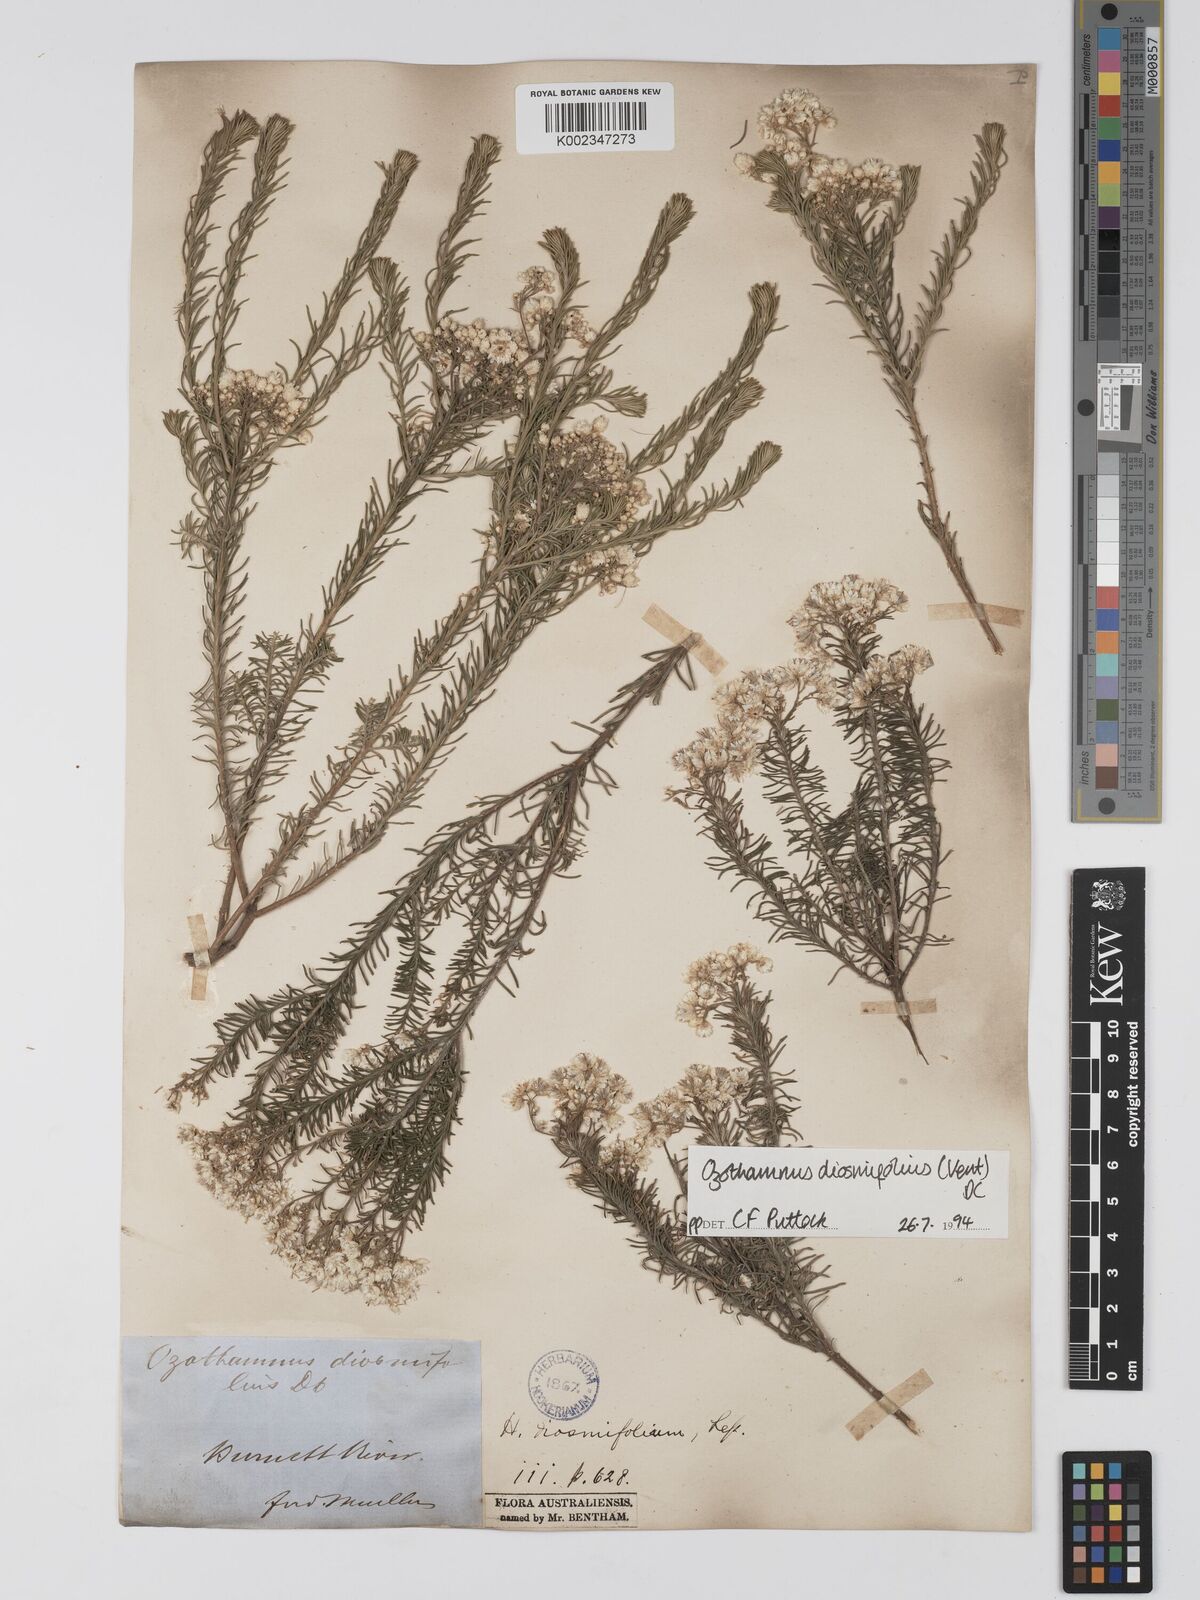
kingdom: Plantae
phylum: Tracheophyta
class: Magnoliopsida
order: Asterales
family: Asteraceae
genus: Ozothamnus
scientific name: Ozothamnus diosmifolius
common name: White-dogwood
